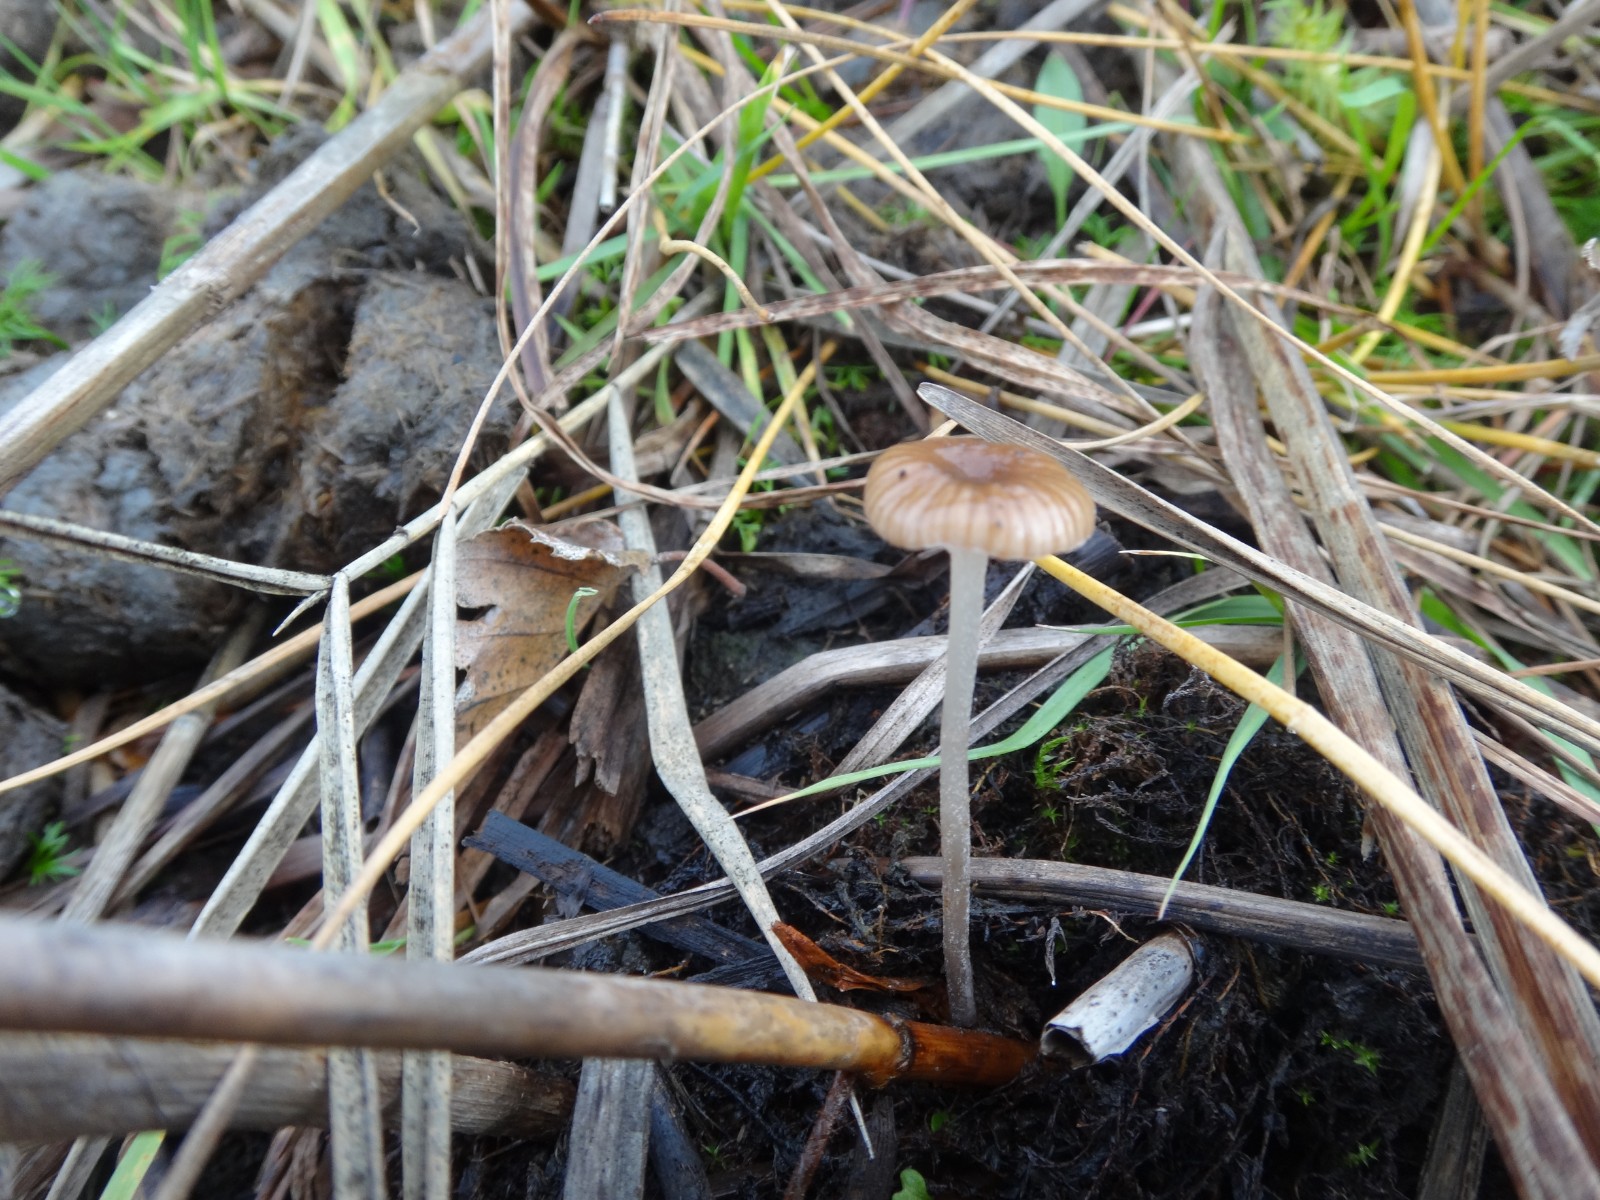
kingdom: Fungi
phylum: Basidiomycota
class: Agaricomycetes
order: Agaricales
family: Mycenaceae
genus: Mycena
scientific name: Mycena belliae
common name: tagrørs-huesvamp
